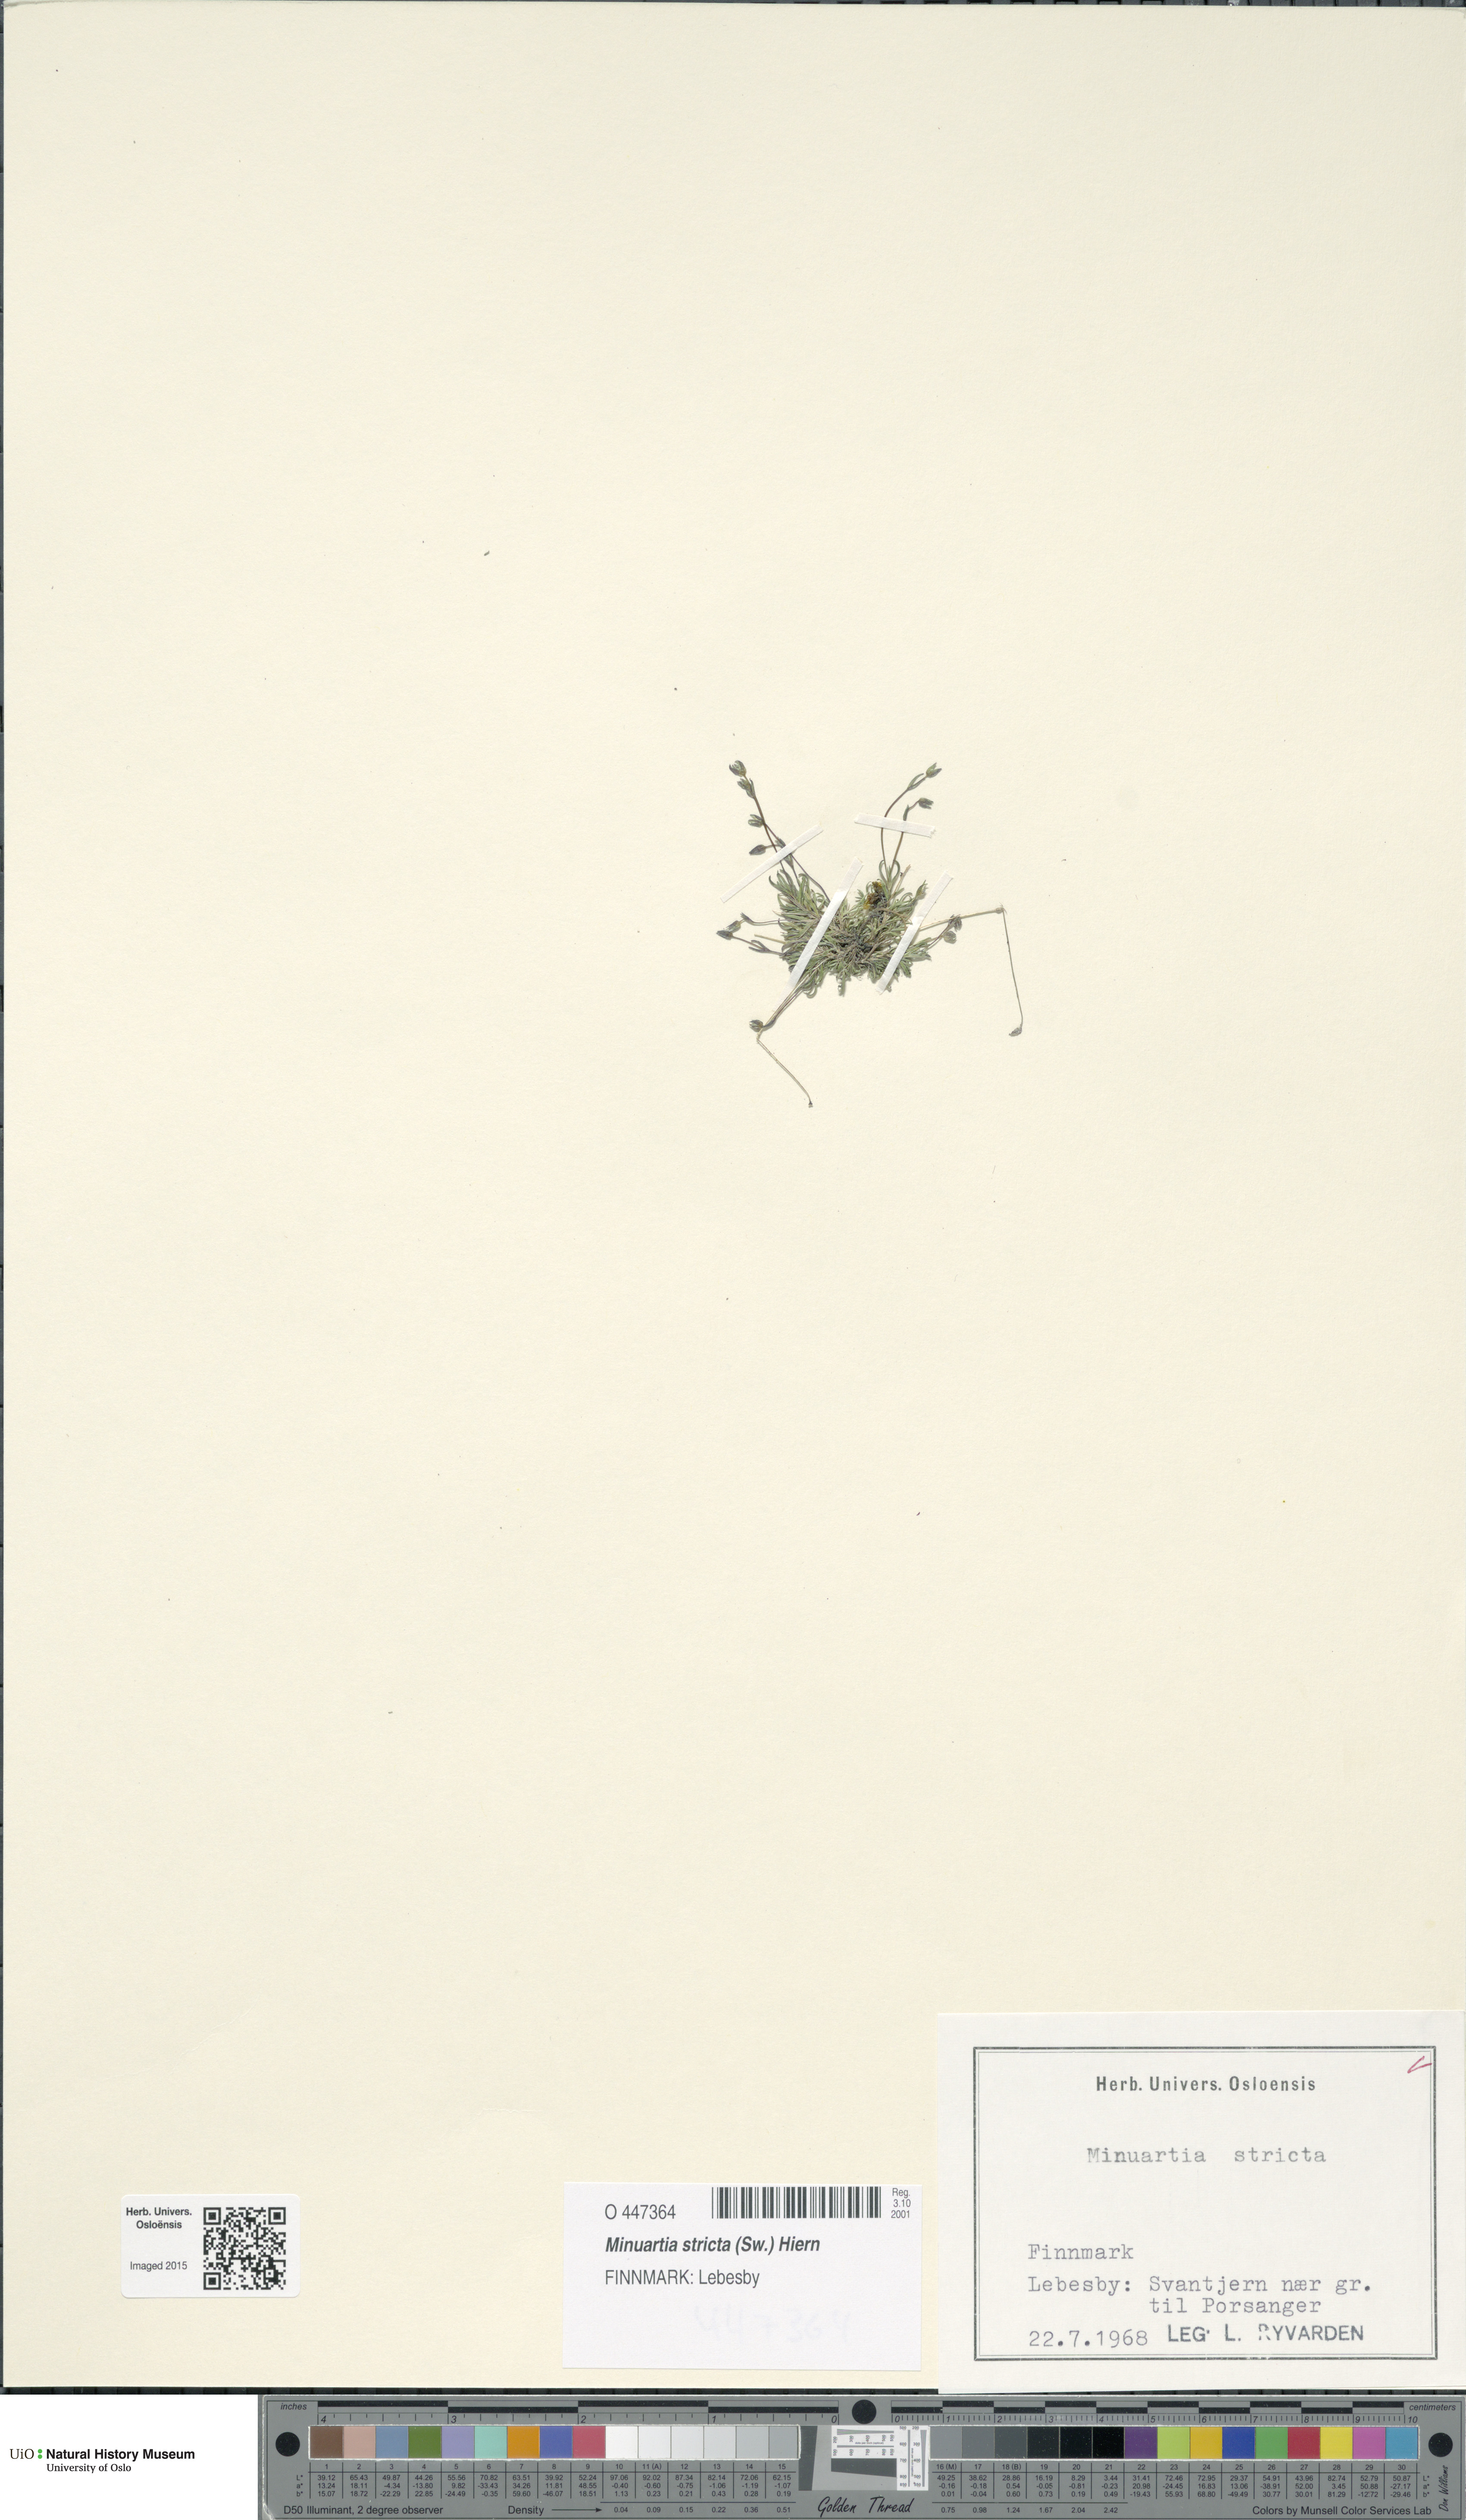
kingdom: Plantae
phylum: Tracheophyta
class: Magnoliopsida
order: Caryophyllales
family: Caryophyllaceae
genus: Sabulina
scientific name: Sabulina stricta
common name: Bog sandwort
